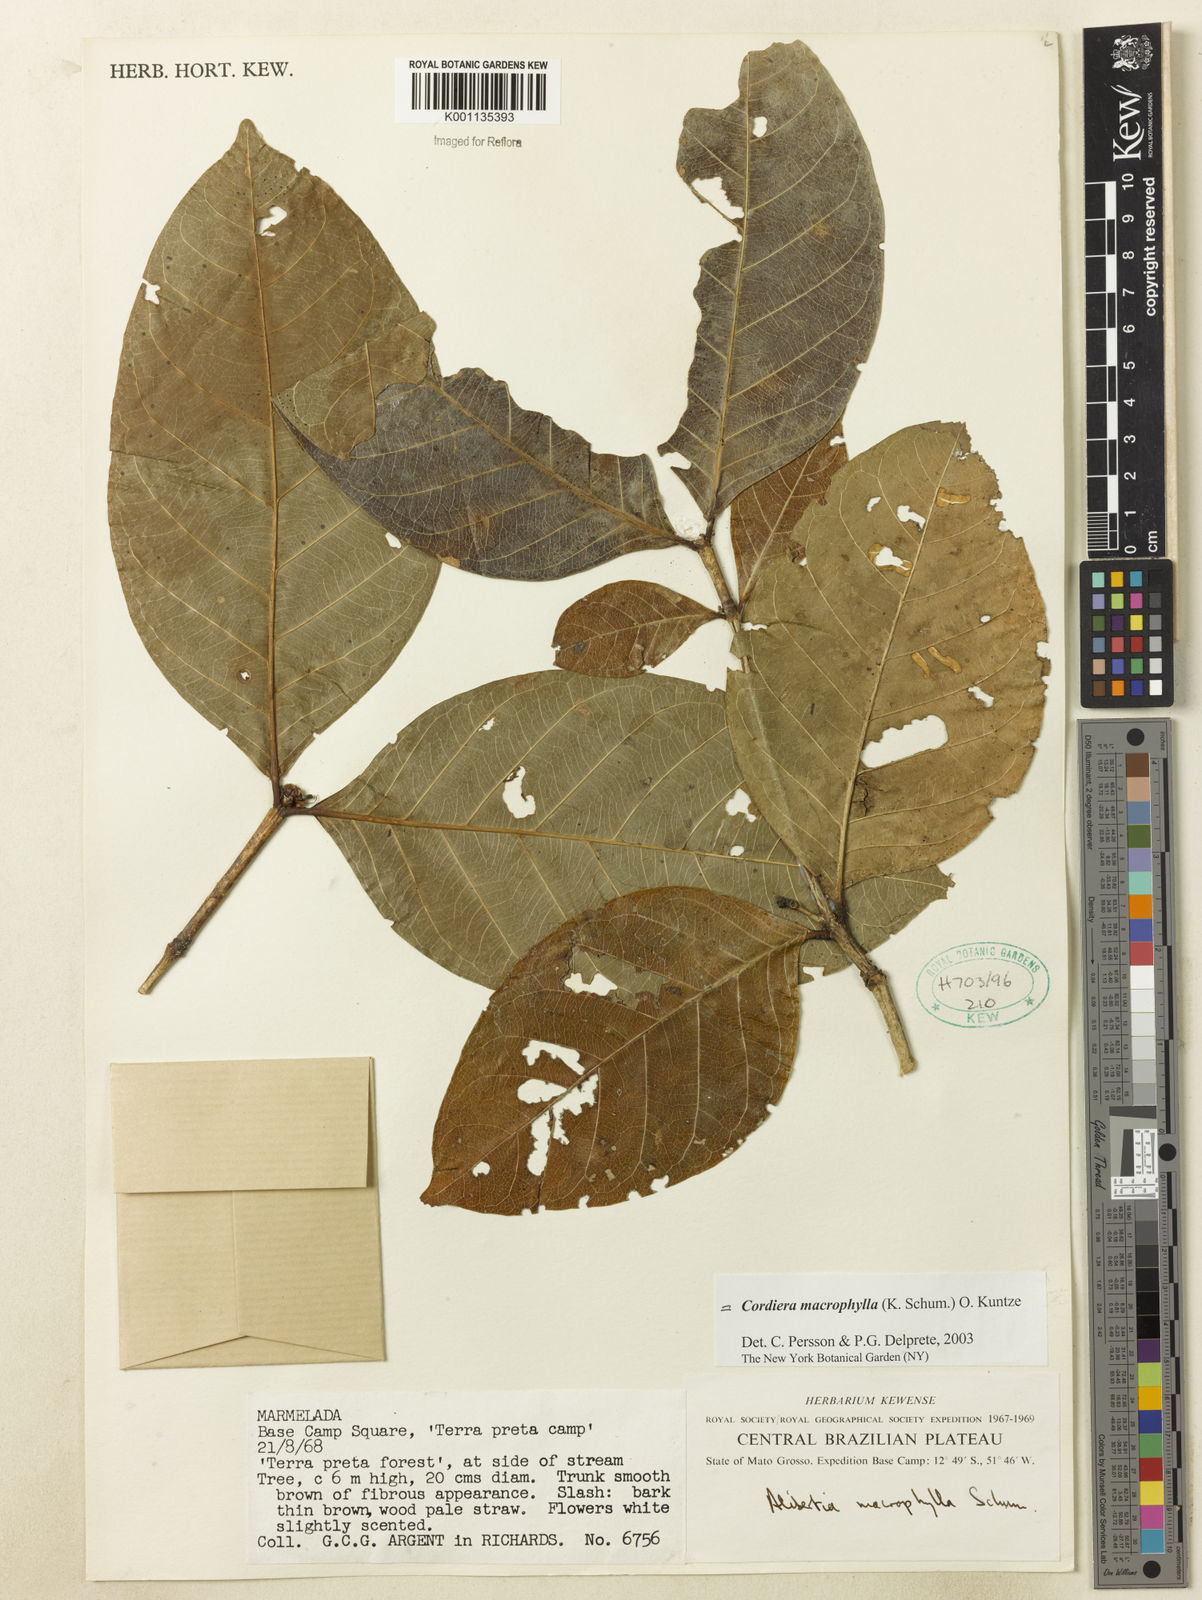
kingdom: Plantae
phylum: Tracheophyta
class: Magnoliopsida
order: Gentianales
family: Rubiaceae
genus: Cordiera
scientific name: Cordiera macrophylla
